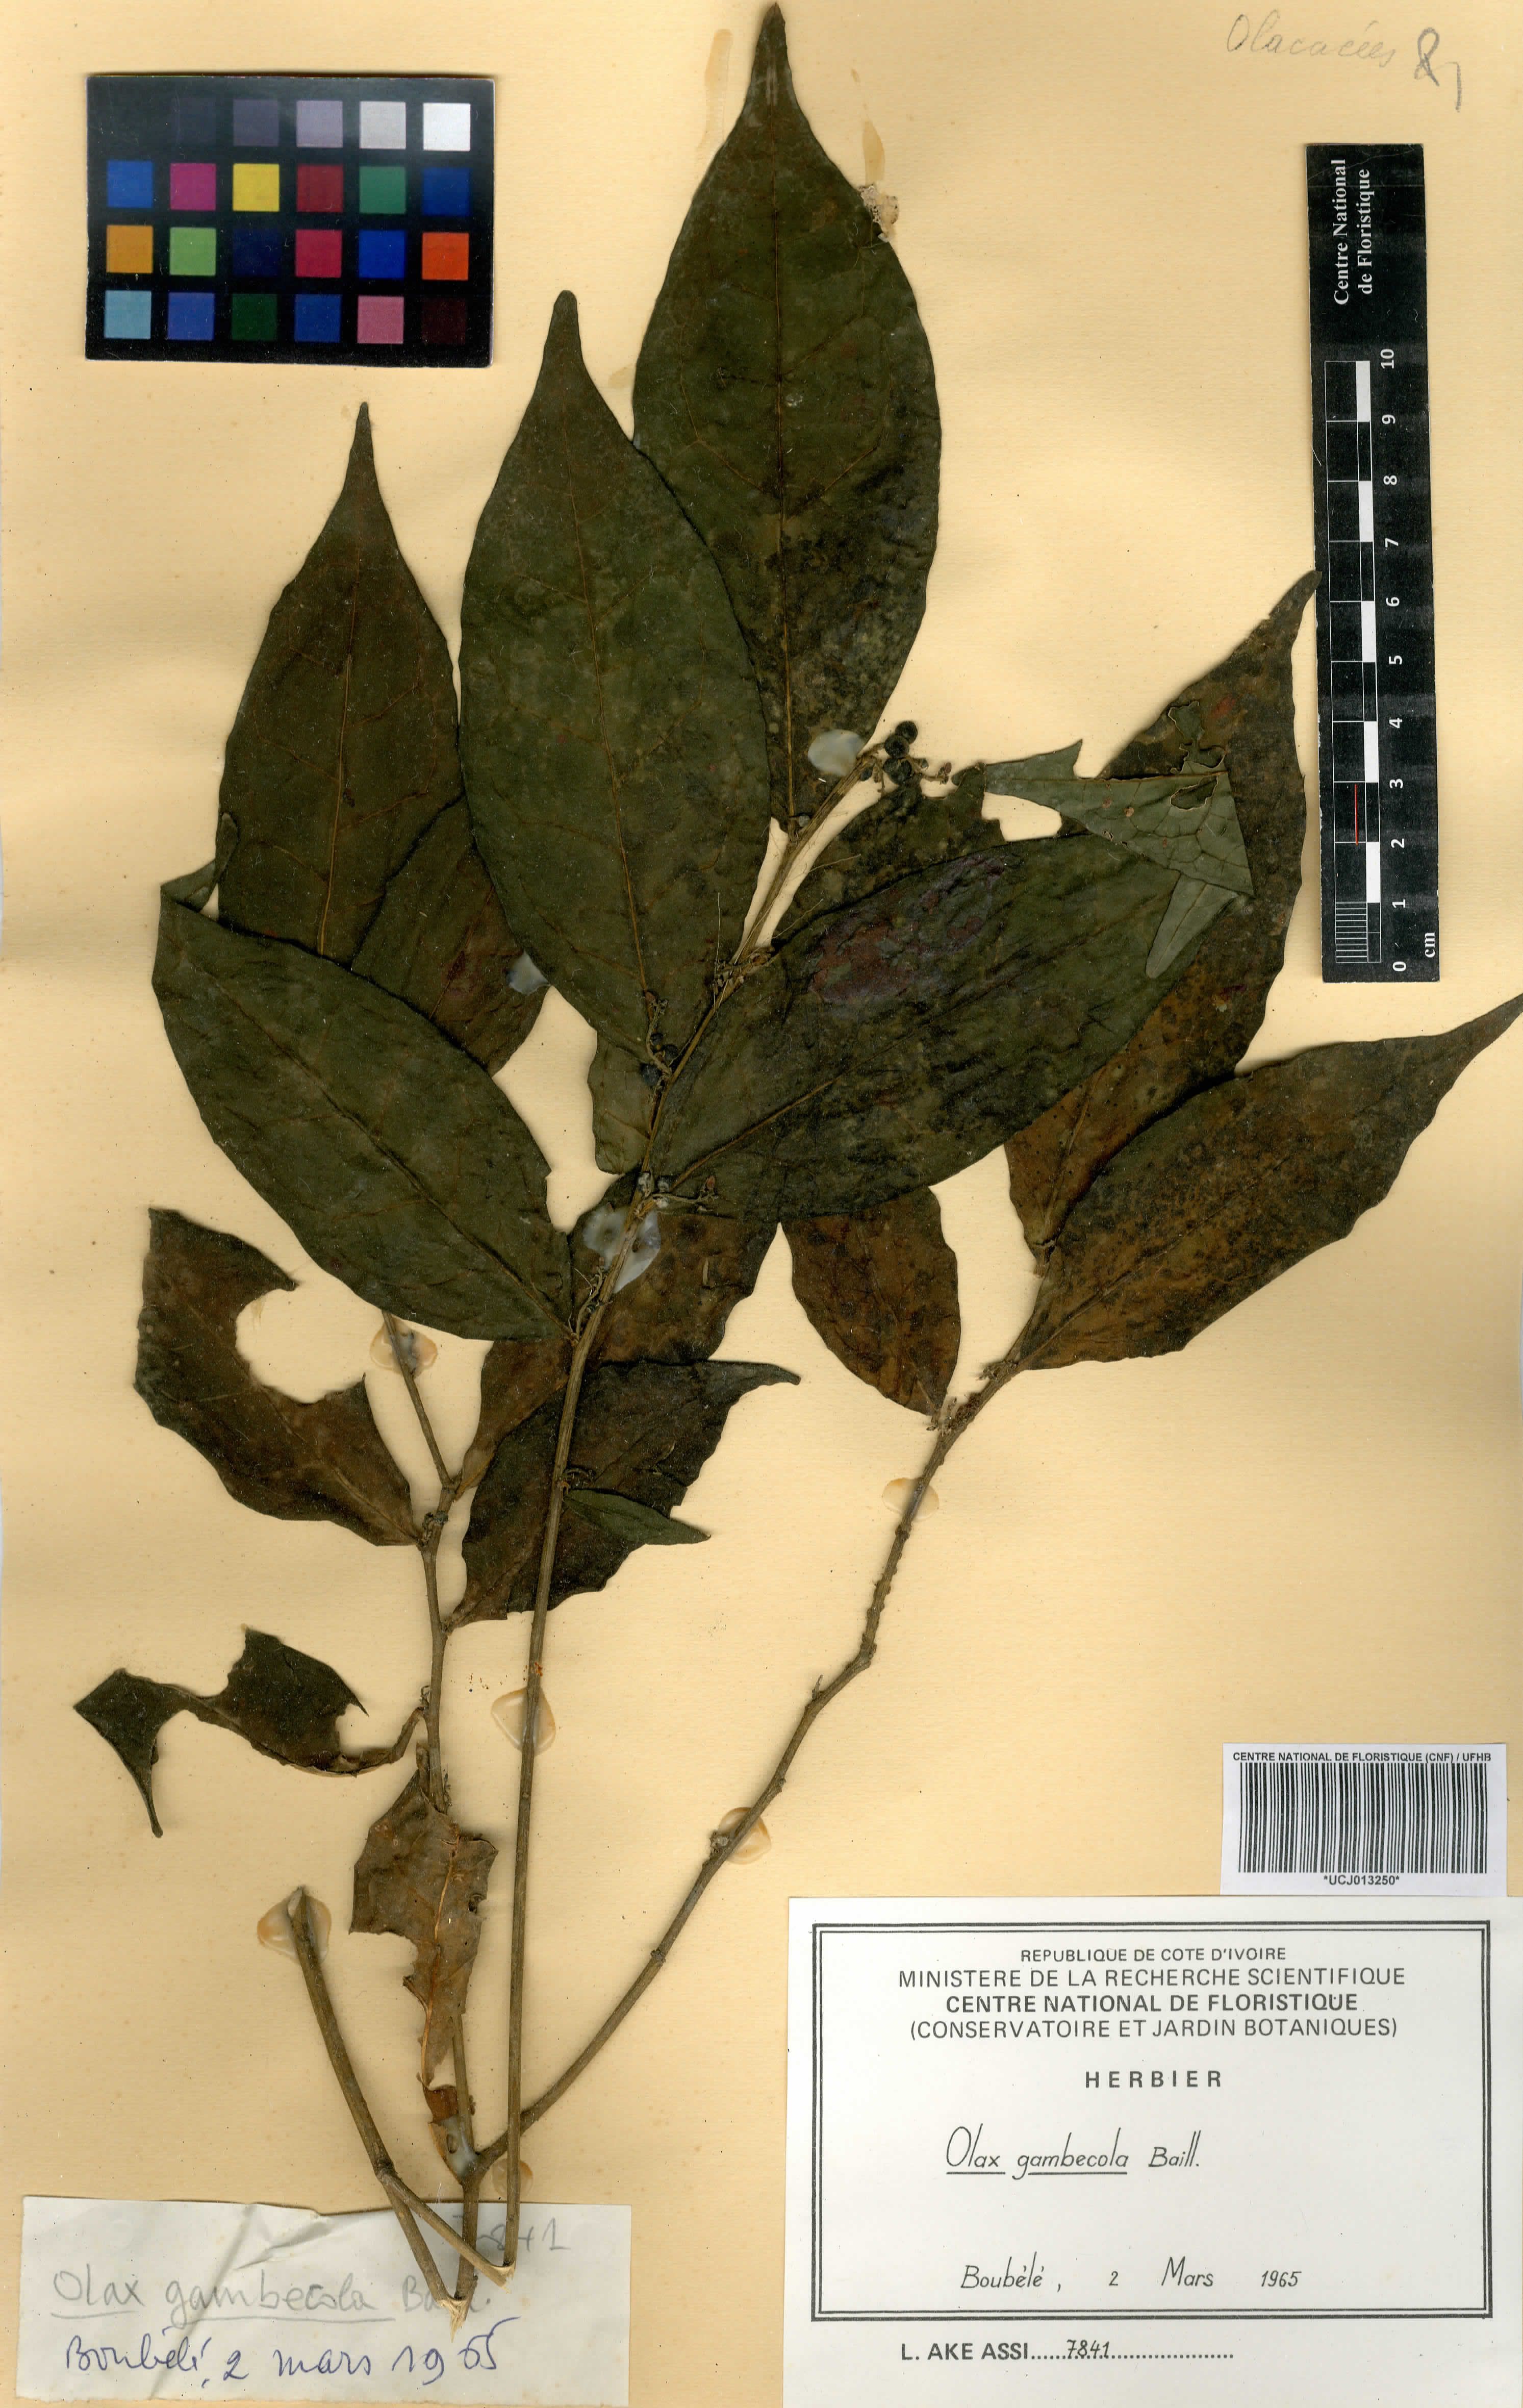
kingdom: Plantae
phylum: Tracheophyta
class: Magnoliopsida
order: Santalales
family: Olacaceae
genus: Olax
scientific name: Olax gambecola
